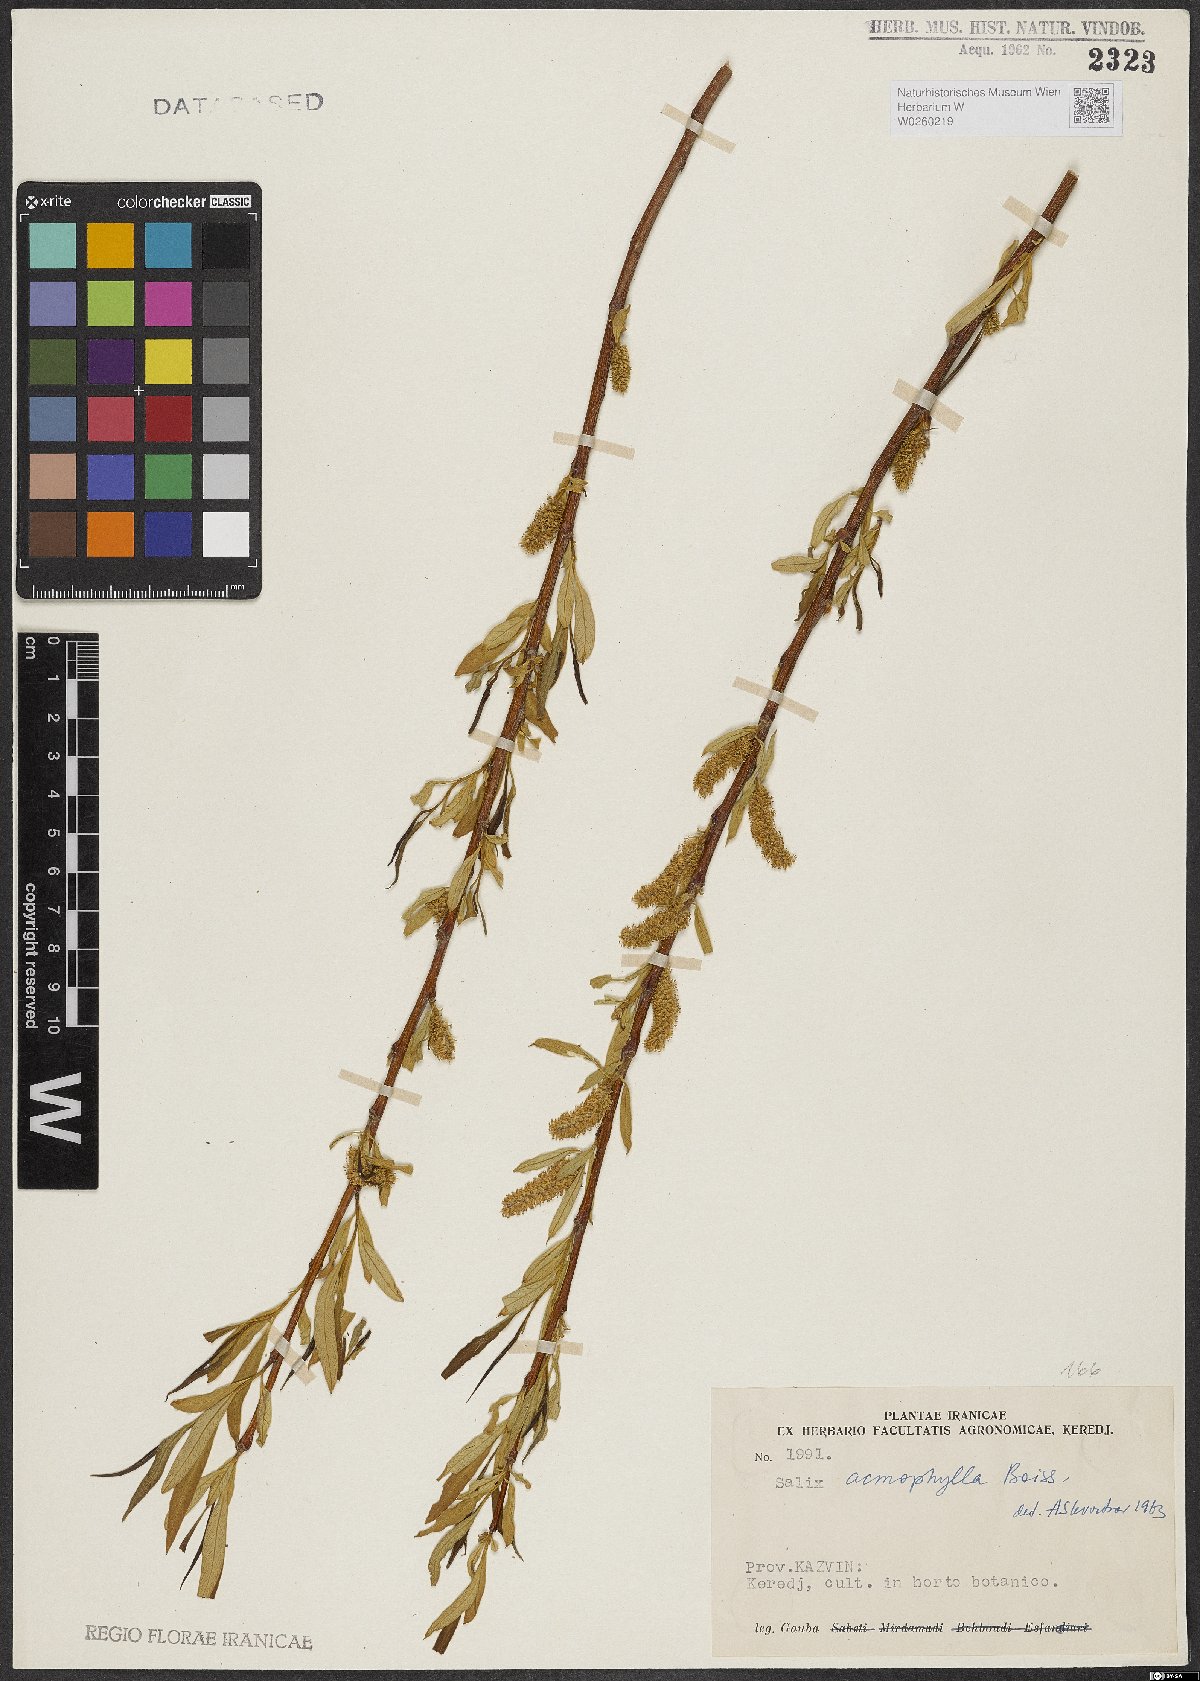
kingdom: Plantae
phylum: Tracheophyta
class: Magnoliopsida
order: Malpighiales
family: Salicaceae
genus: Salix
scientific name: Salix acmophylla
